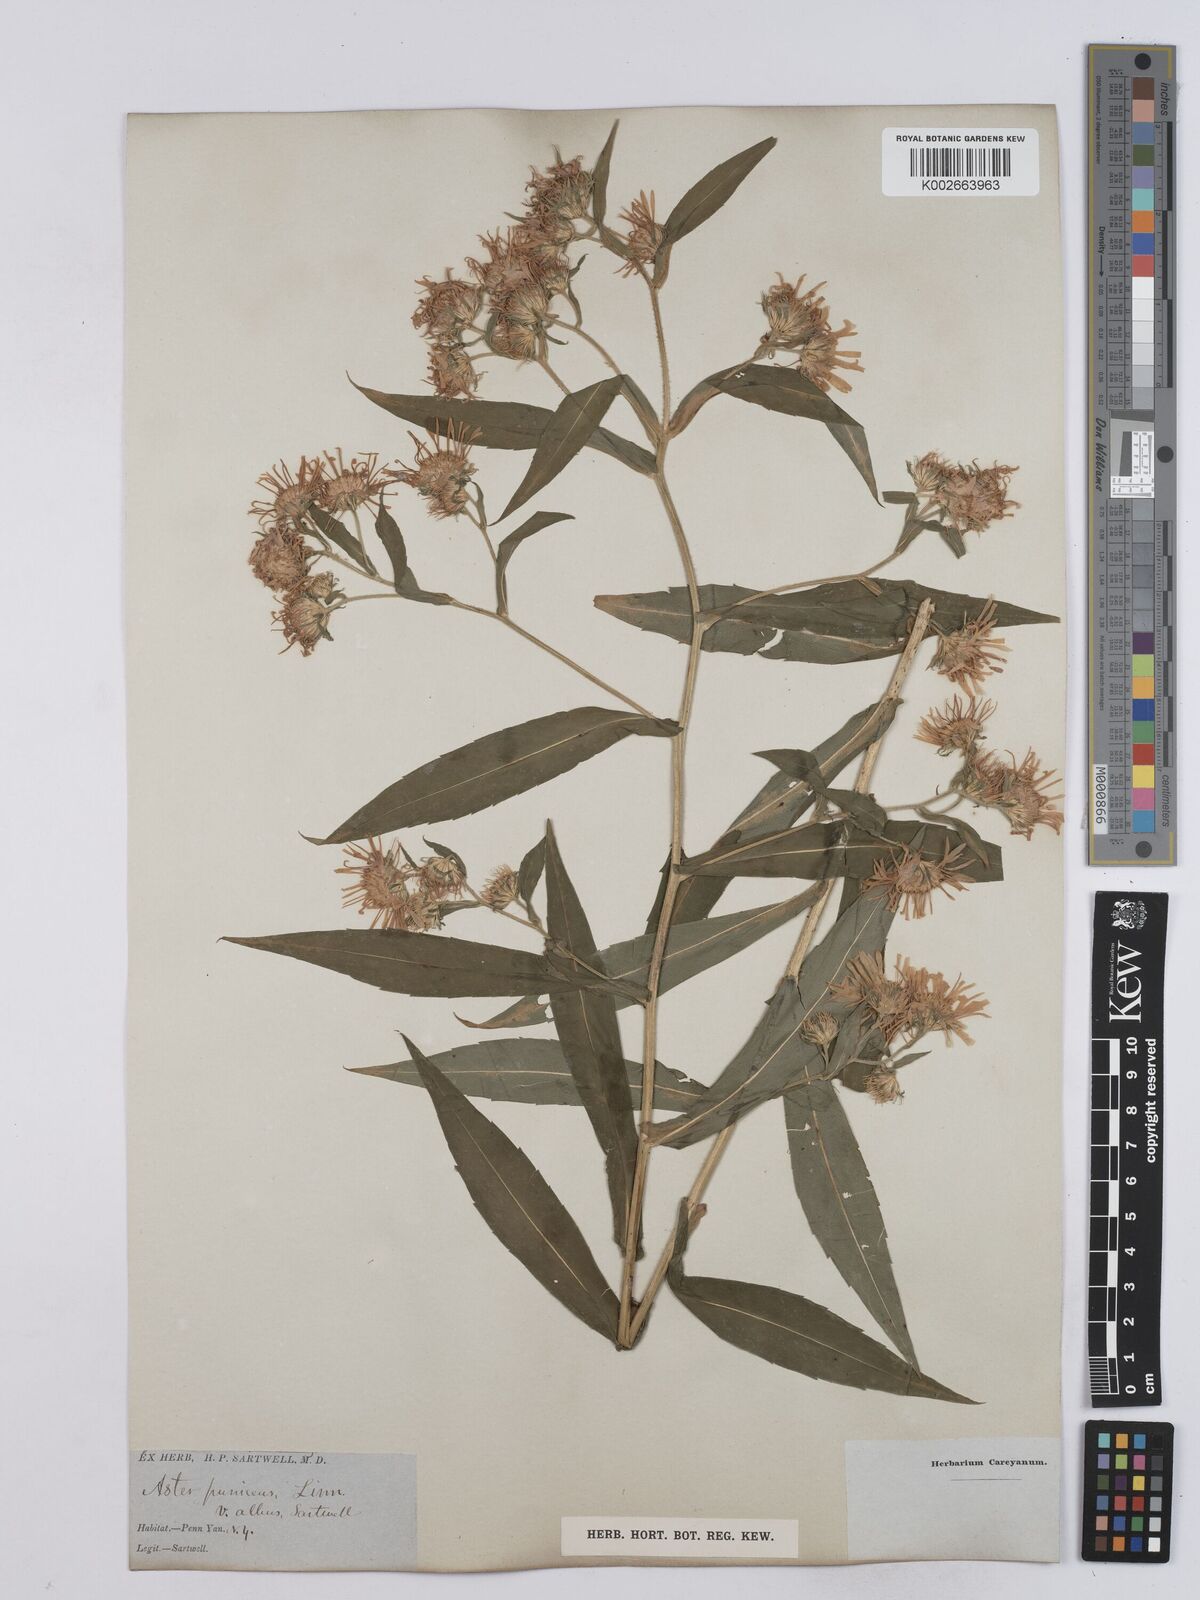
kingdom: Plantae
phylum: Tracheophyta
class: Magnoliopsida
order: Asterales
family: Asteraceae
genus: Symphyotrichum
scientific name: Symphyotrichum puniceum
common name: Bog aster
